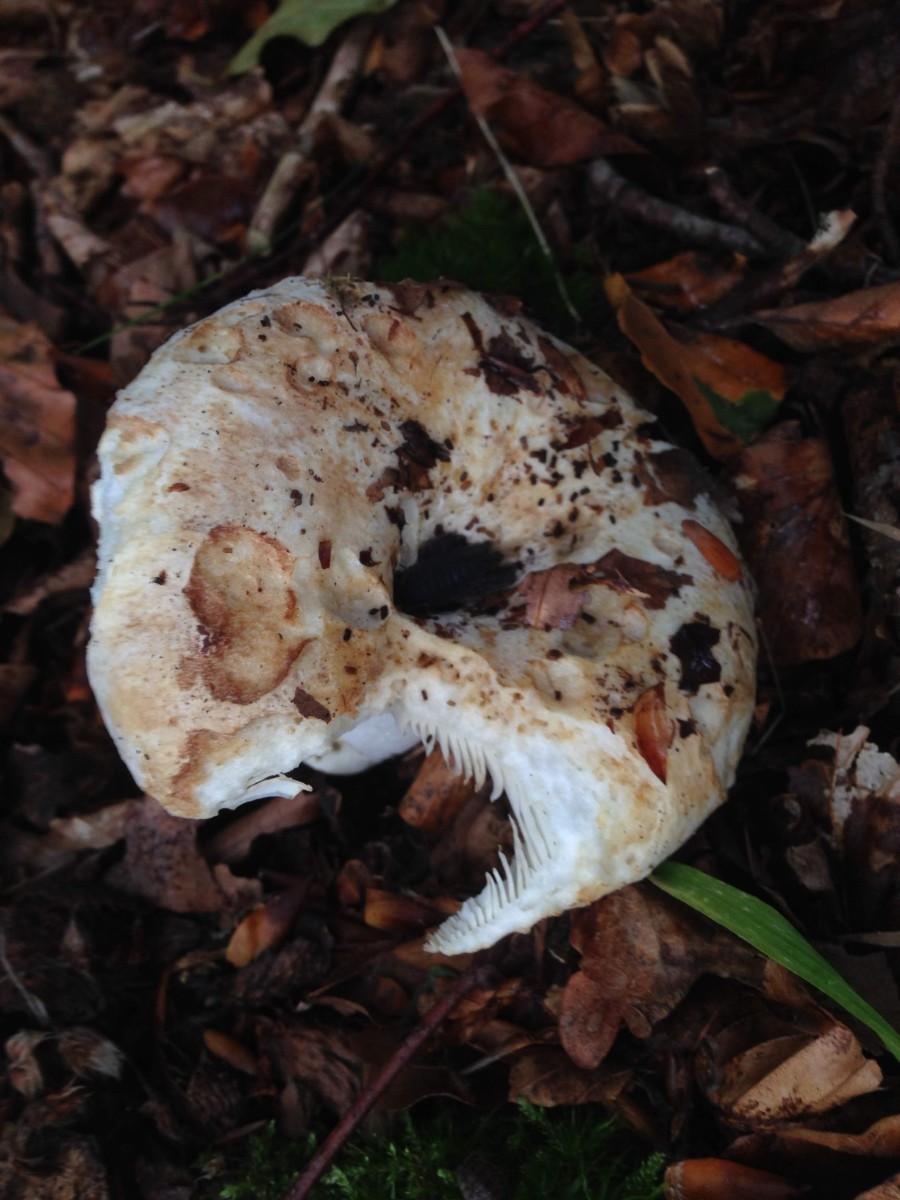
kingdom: Fungi
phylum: Basidiomycota
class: Agaricomycetes
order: Russulales
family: Russulaceae
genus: Russula
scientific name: Russula chloroides
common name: grønhalset tragt-skørhat
